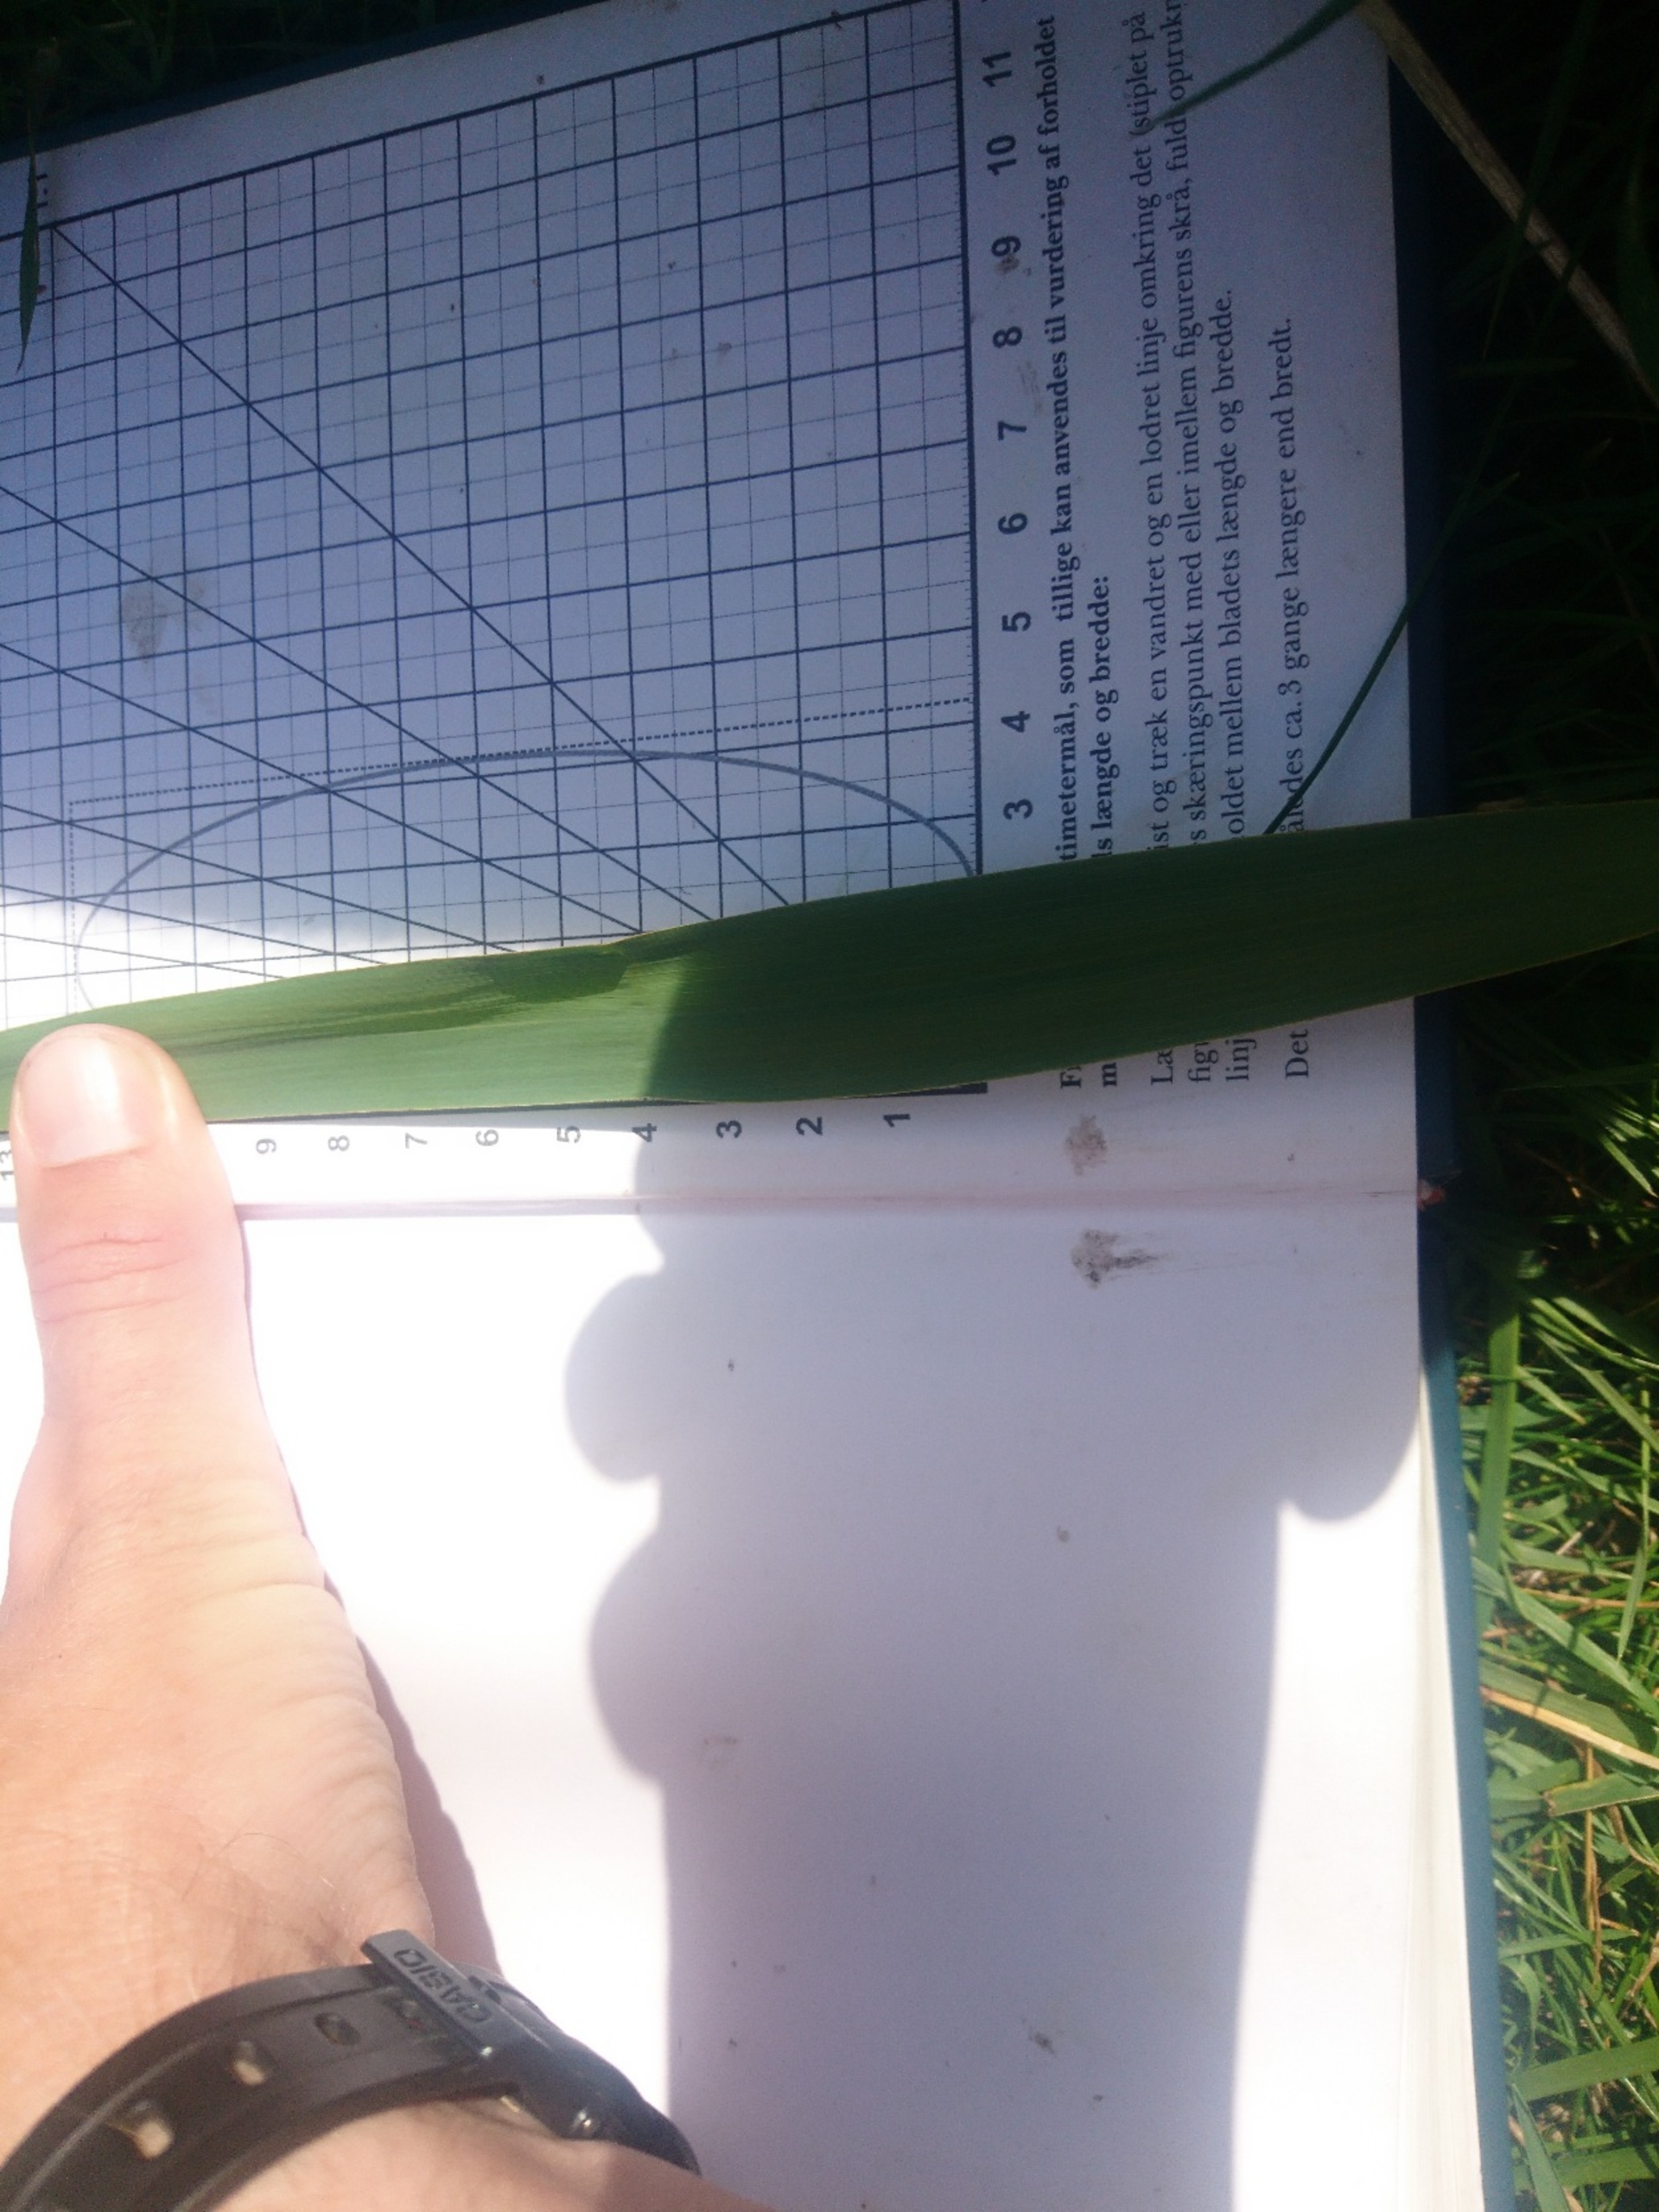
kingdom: Plantae
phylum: Tracheophyta
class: Liliopsida
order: Poales
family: Poaceae
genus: Phragmites
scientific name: Phragmites australis
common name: Tagrør
